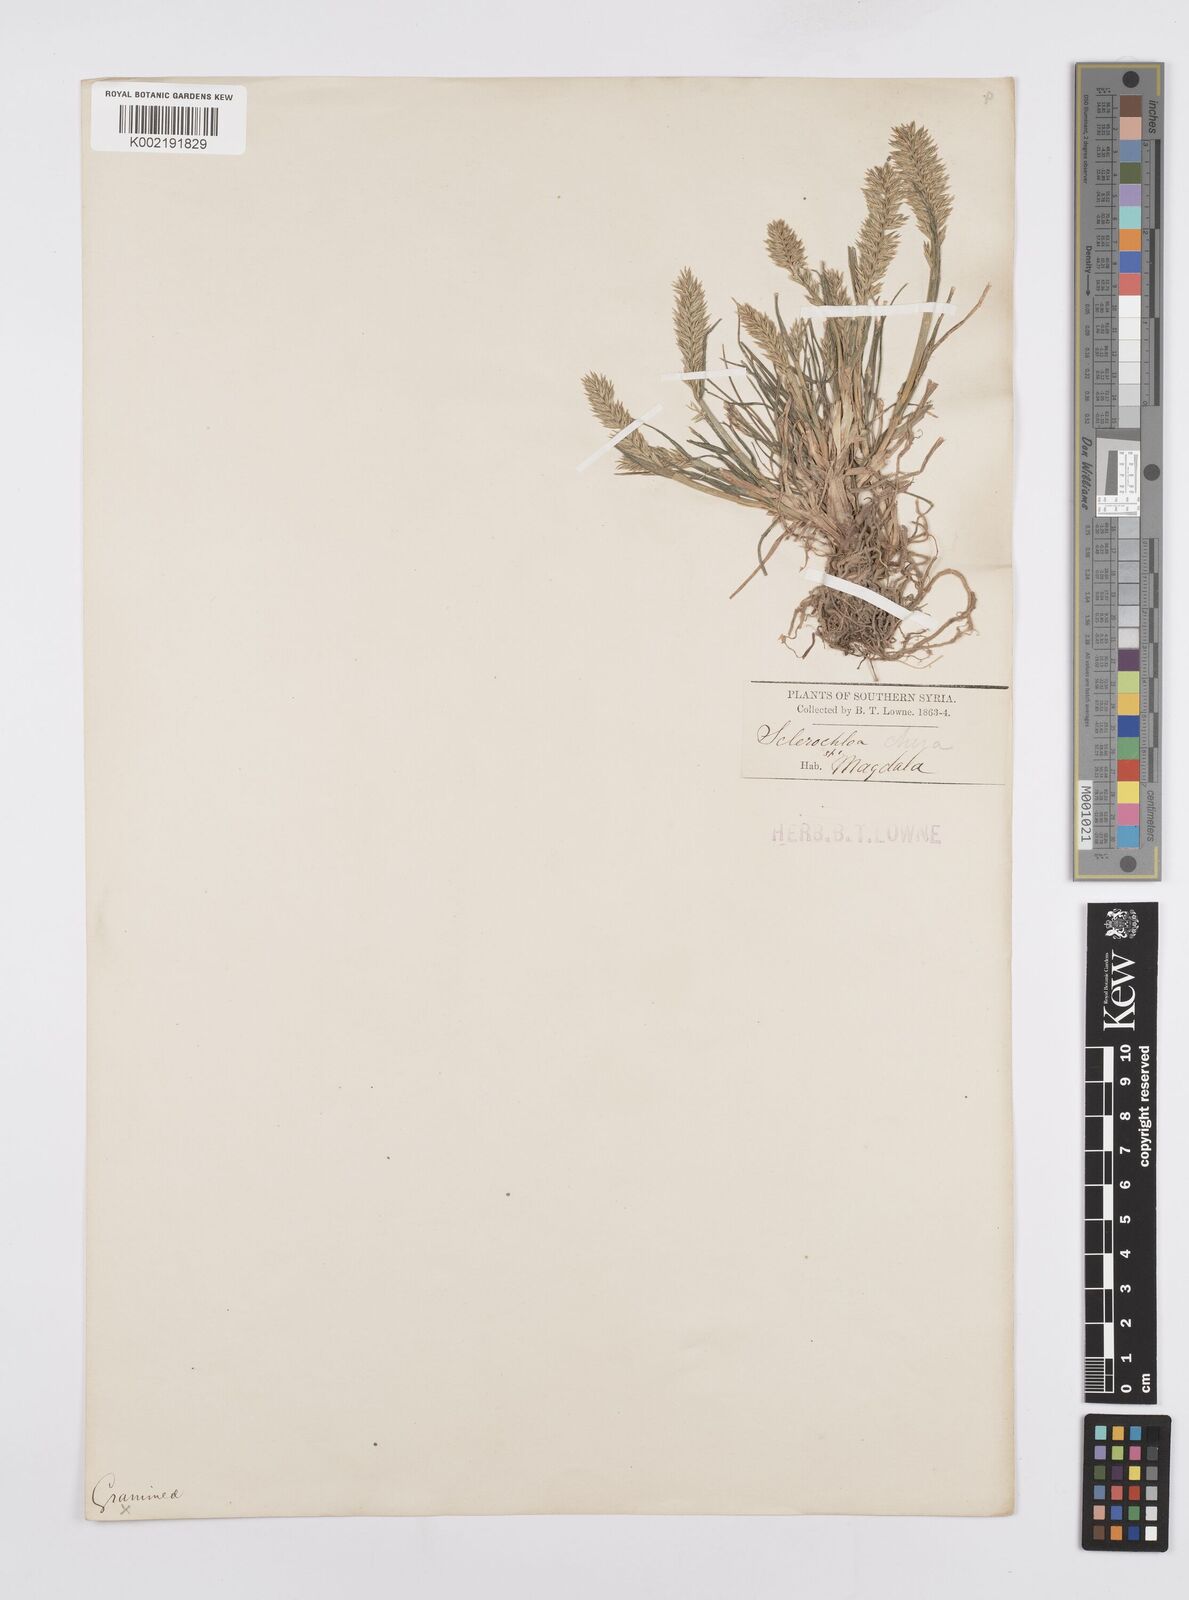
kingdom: Plantae
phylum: Tracheophyta
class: Liliopsida
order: Poales
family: Poaceae
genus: Sclerochloa
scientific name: Sclerochloa dura
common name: Common hardgrass
